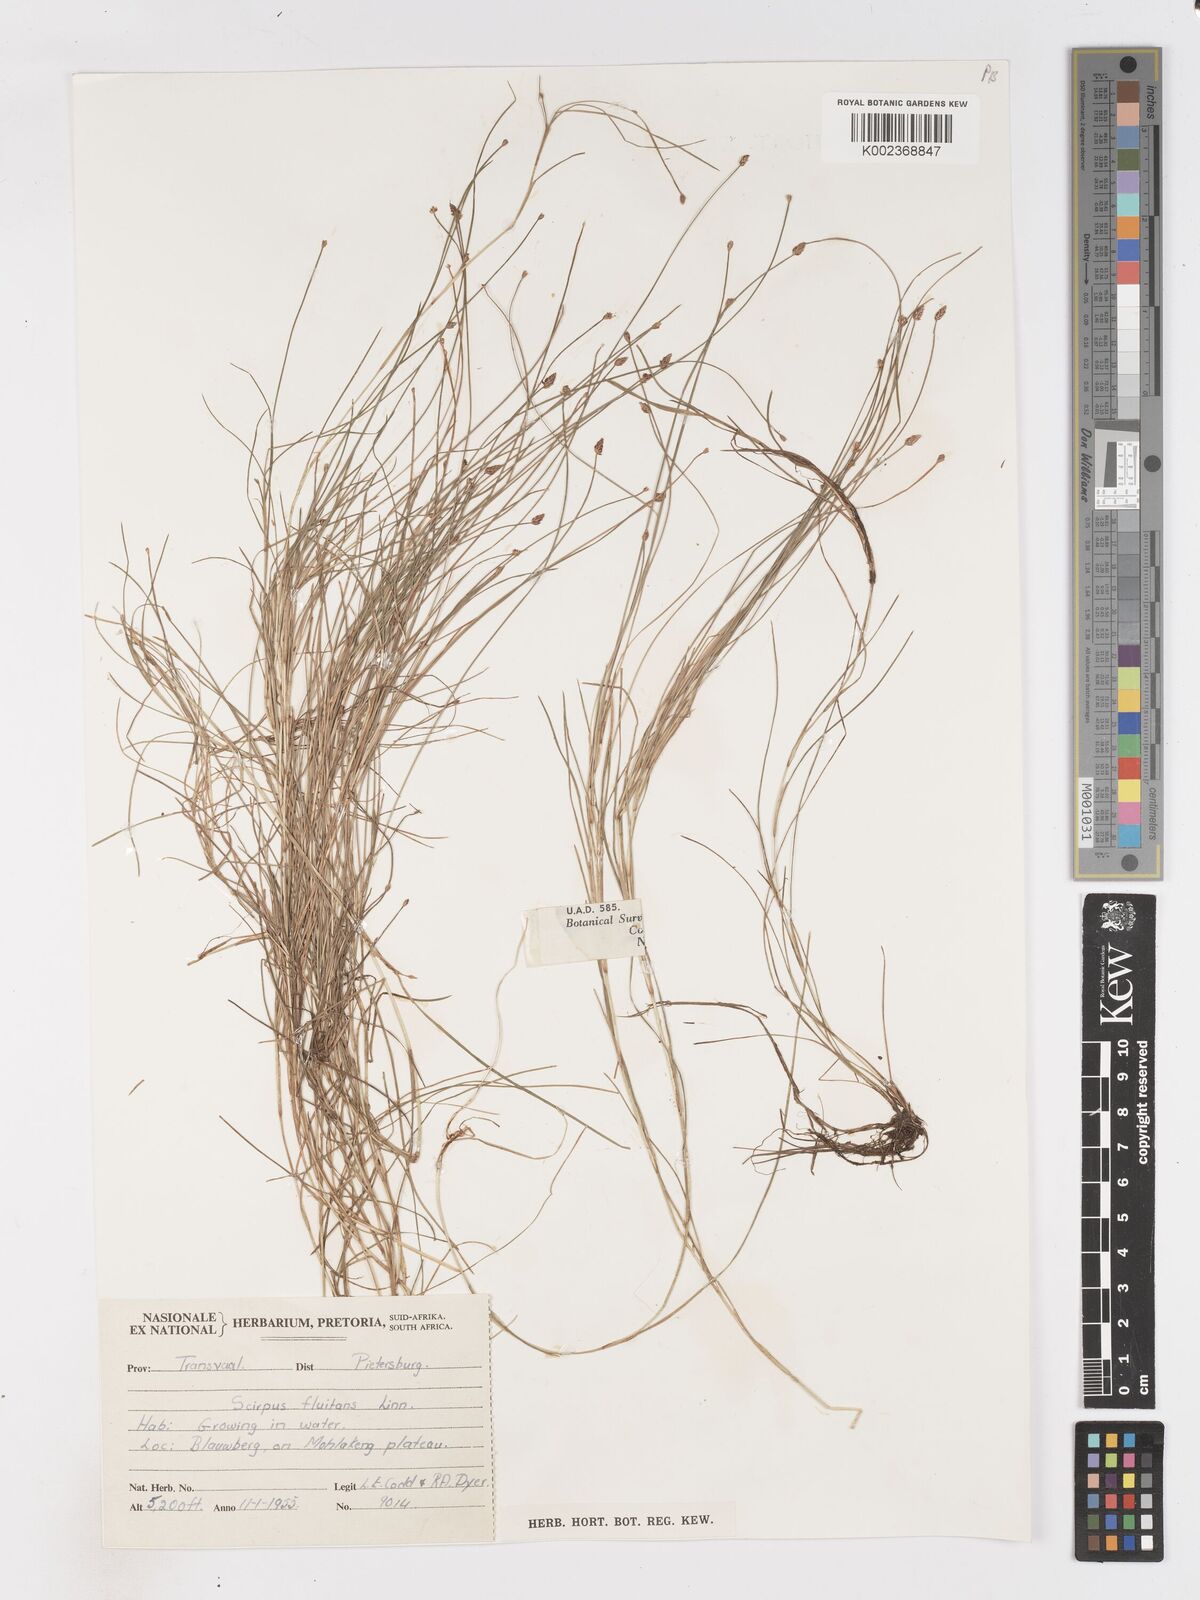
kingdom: Plantae
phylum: Tracheophyta
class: Liliopsida
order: Poales
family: Cyperaceae
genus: Isolepis
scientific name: Isolepis fluitans
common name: Floating club-rush
